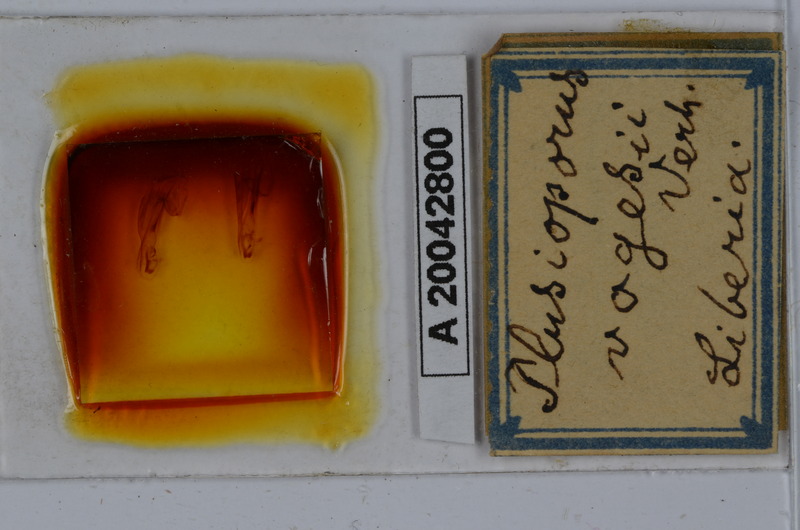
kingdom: Animalia
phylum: Arthropoda
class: Diplopoda
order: Spirostreptida
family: Spirostreptidae
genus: Telodeinopus
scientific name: Telodeinopus sulcatus
